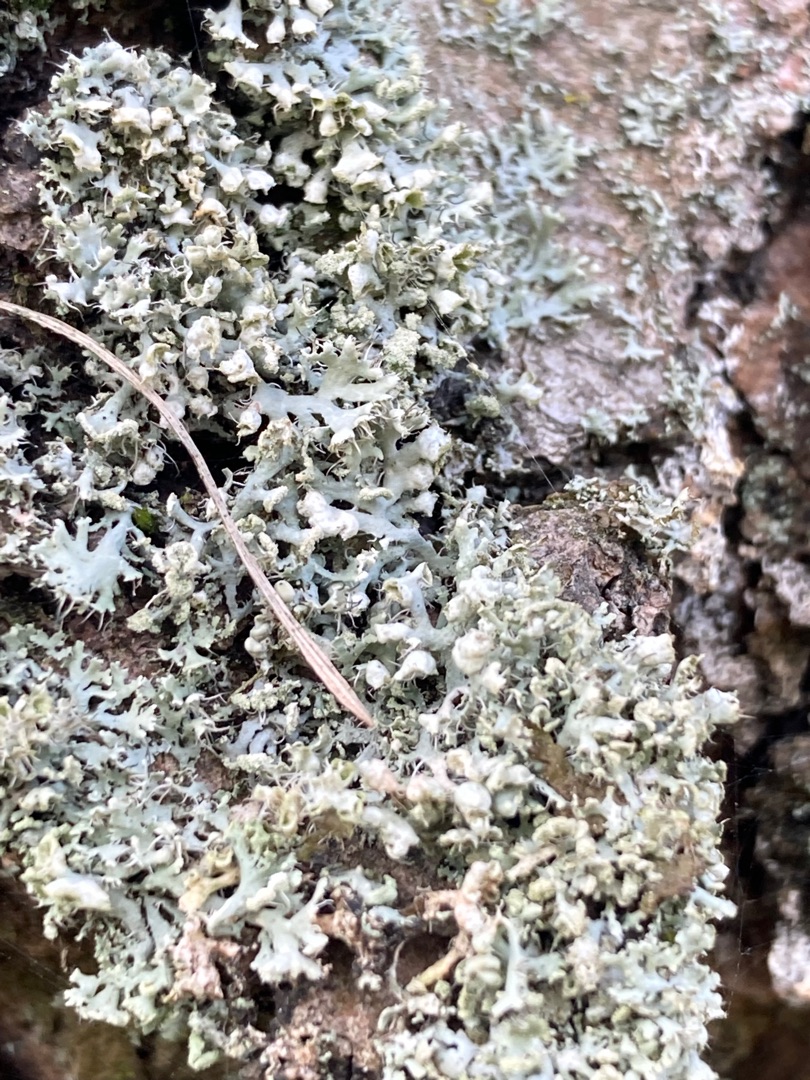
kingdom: Fungi
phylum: Ascomycota
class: Lecanoromycetes
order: Caliciales
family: Physciaceae
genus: Physcia
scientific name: Physcia adscendens
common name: Hætte-rosetlav
